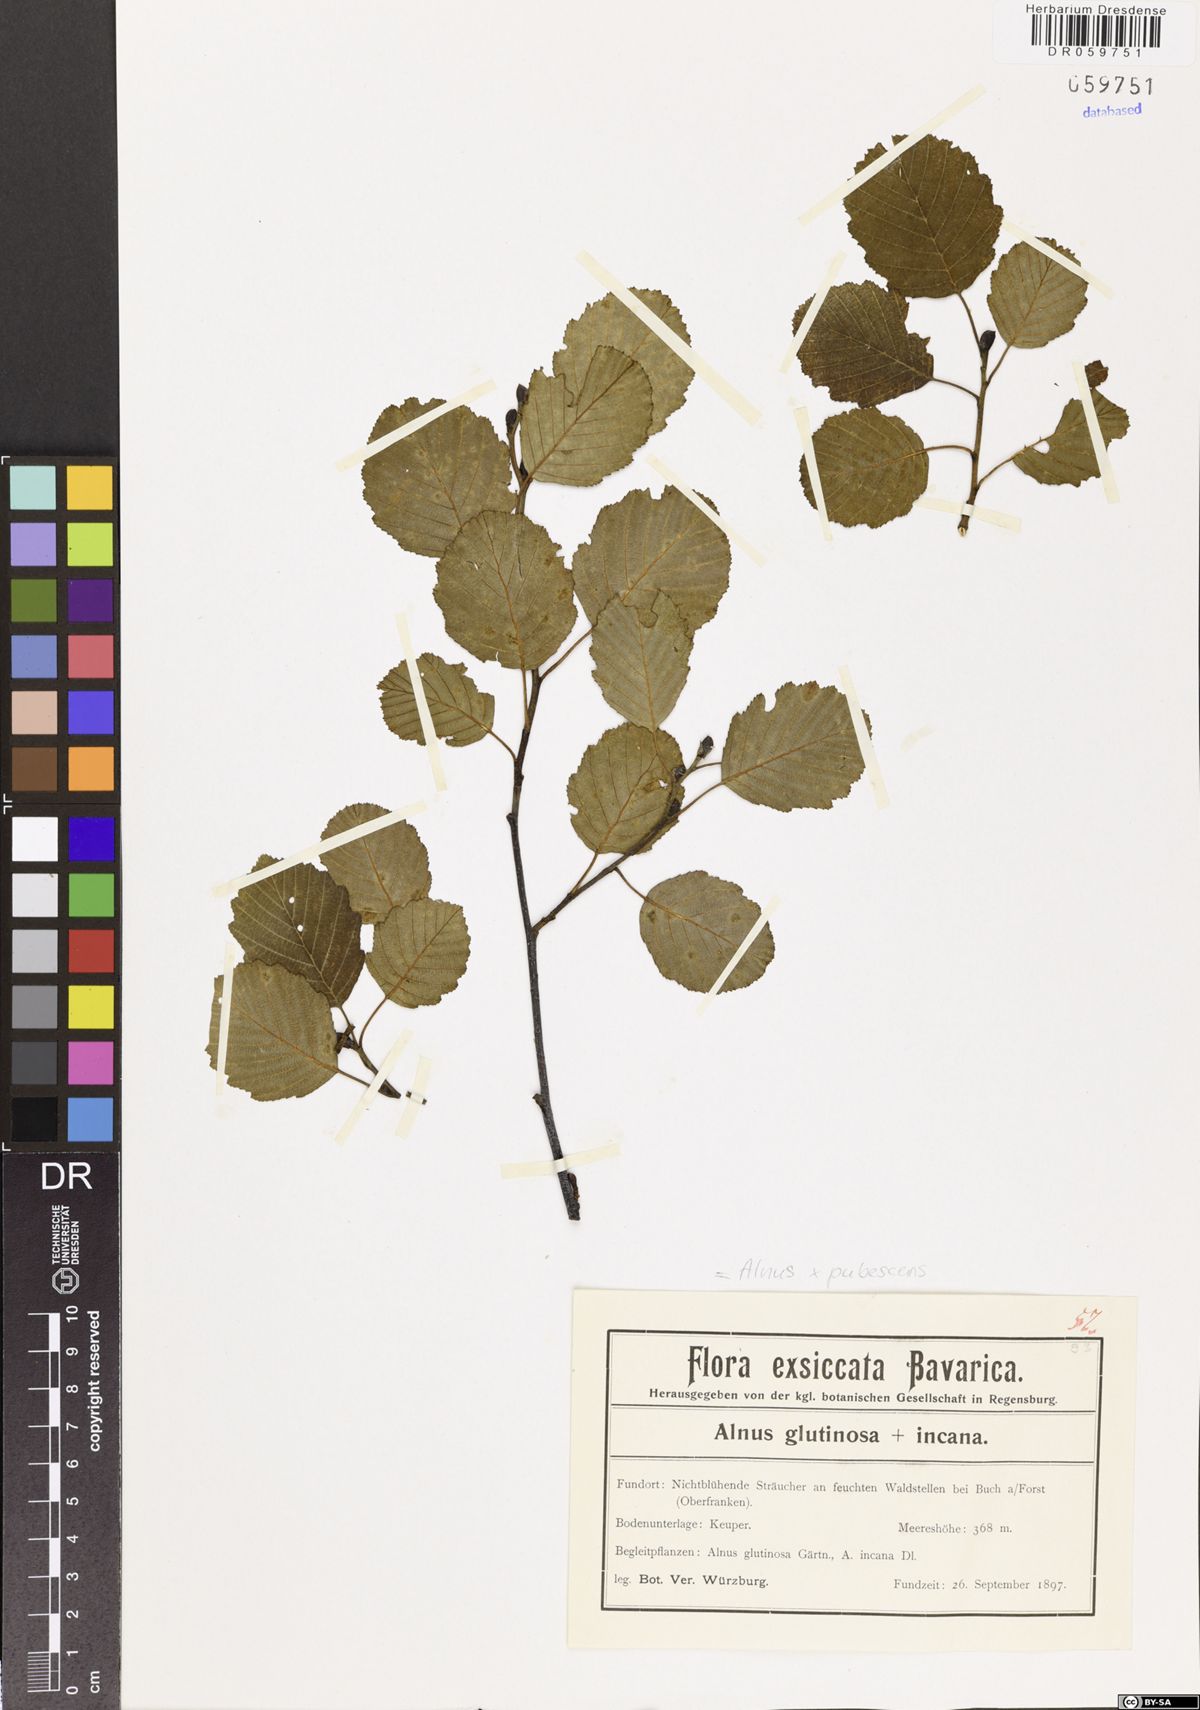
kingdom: Plantae
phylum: Tracheophyta
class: Magnoliopsida
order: Fagales
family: Betulaceae
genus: Alnus
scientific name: Alnus pubescens
